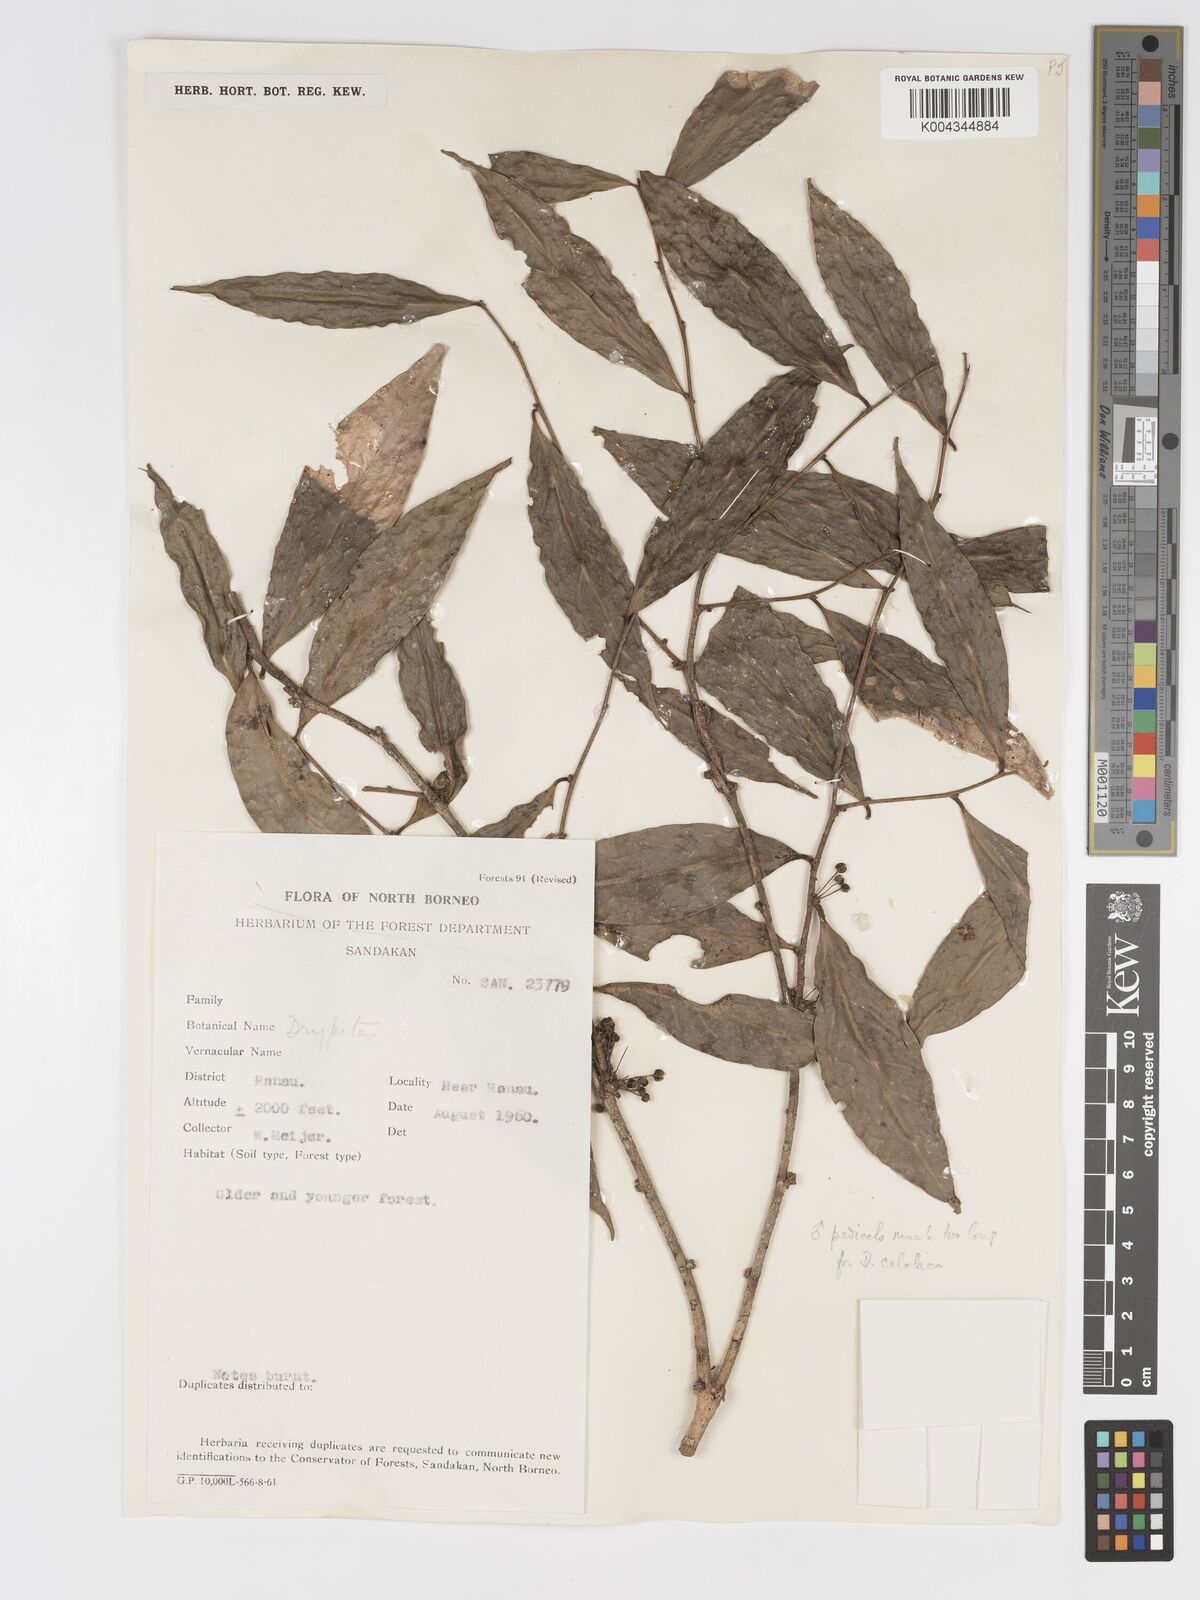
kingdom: Plantae
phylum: Tracheophyta
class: Magnoliopsida
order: Malpighiales
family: Putranjivaceae
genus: Drypetes
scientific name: Drypetes
